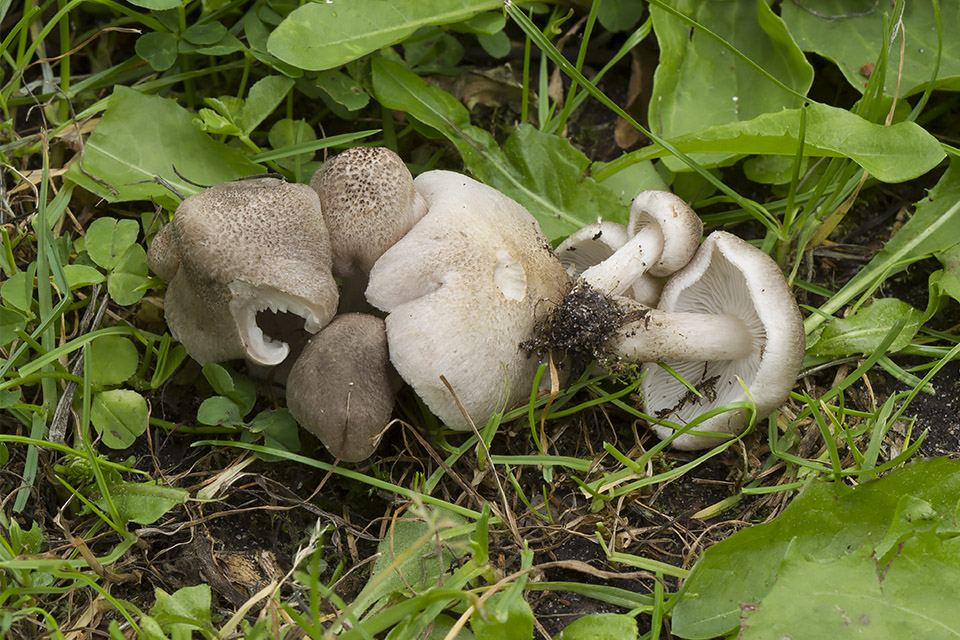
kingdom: Fungi
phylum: Basidiomycota
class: Agaricomycetes
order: Agaricales
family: Tricholomataceae
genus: Tricholoma
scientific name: Tricholoma scalpturatum
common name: gulplettet ridderhat
